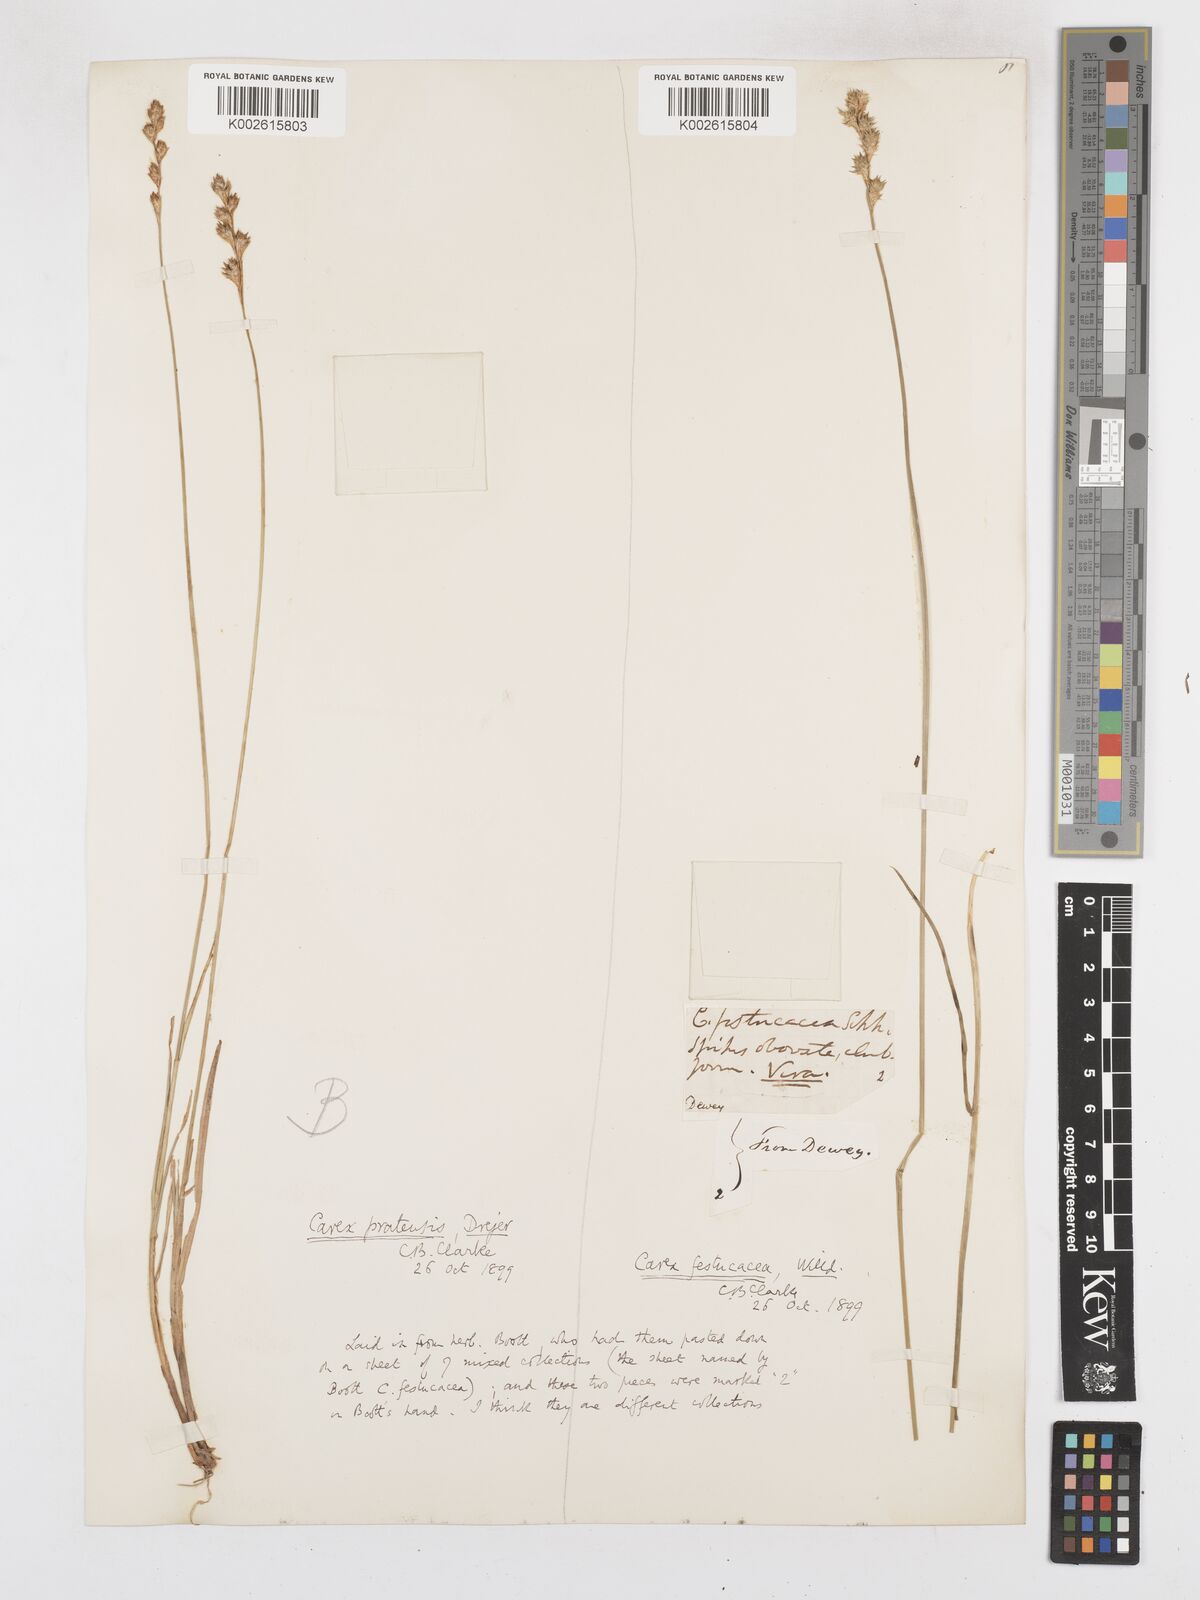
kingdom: Plantae
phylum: Tracheophyta
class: Liliopsida
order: Poales
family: Cyperaceae
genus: Carex
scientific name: Carex praticola
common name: Large-fruited oval sedge
